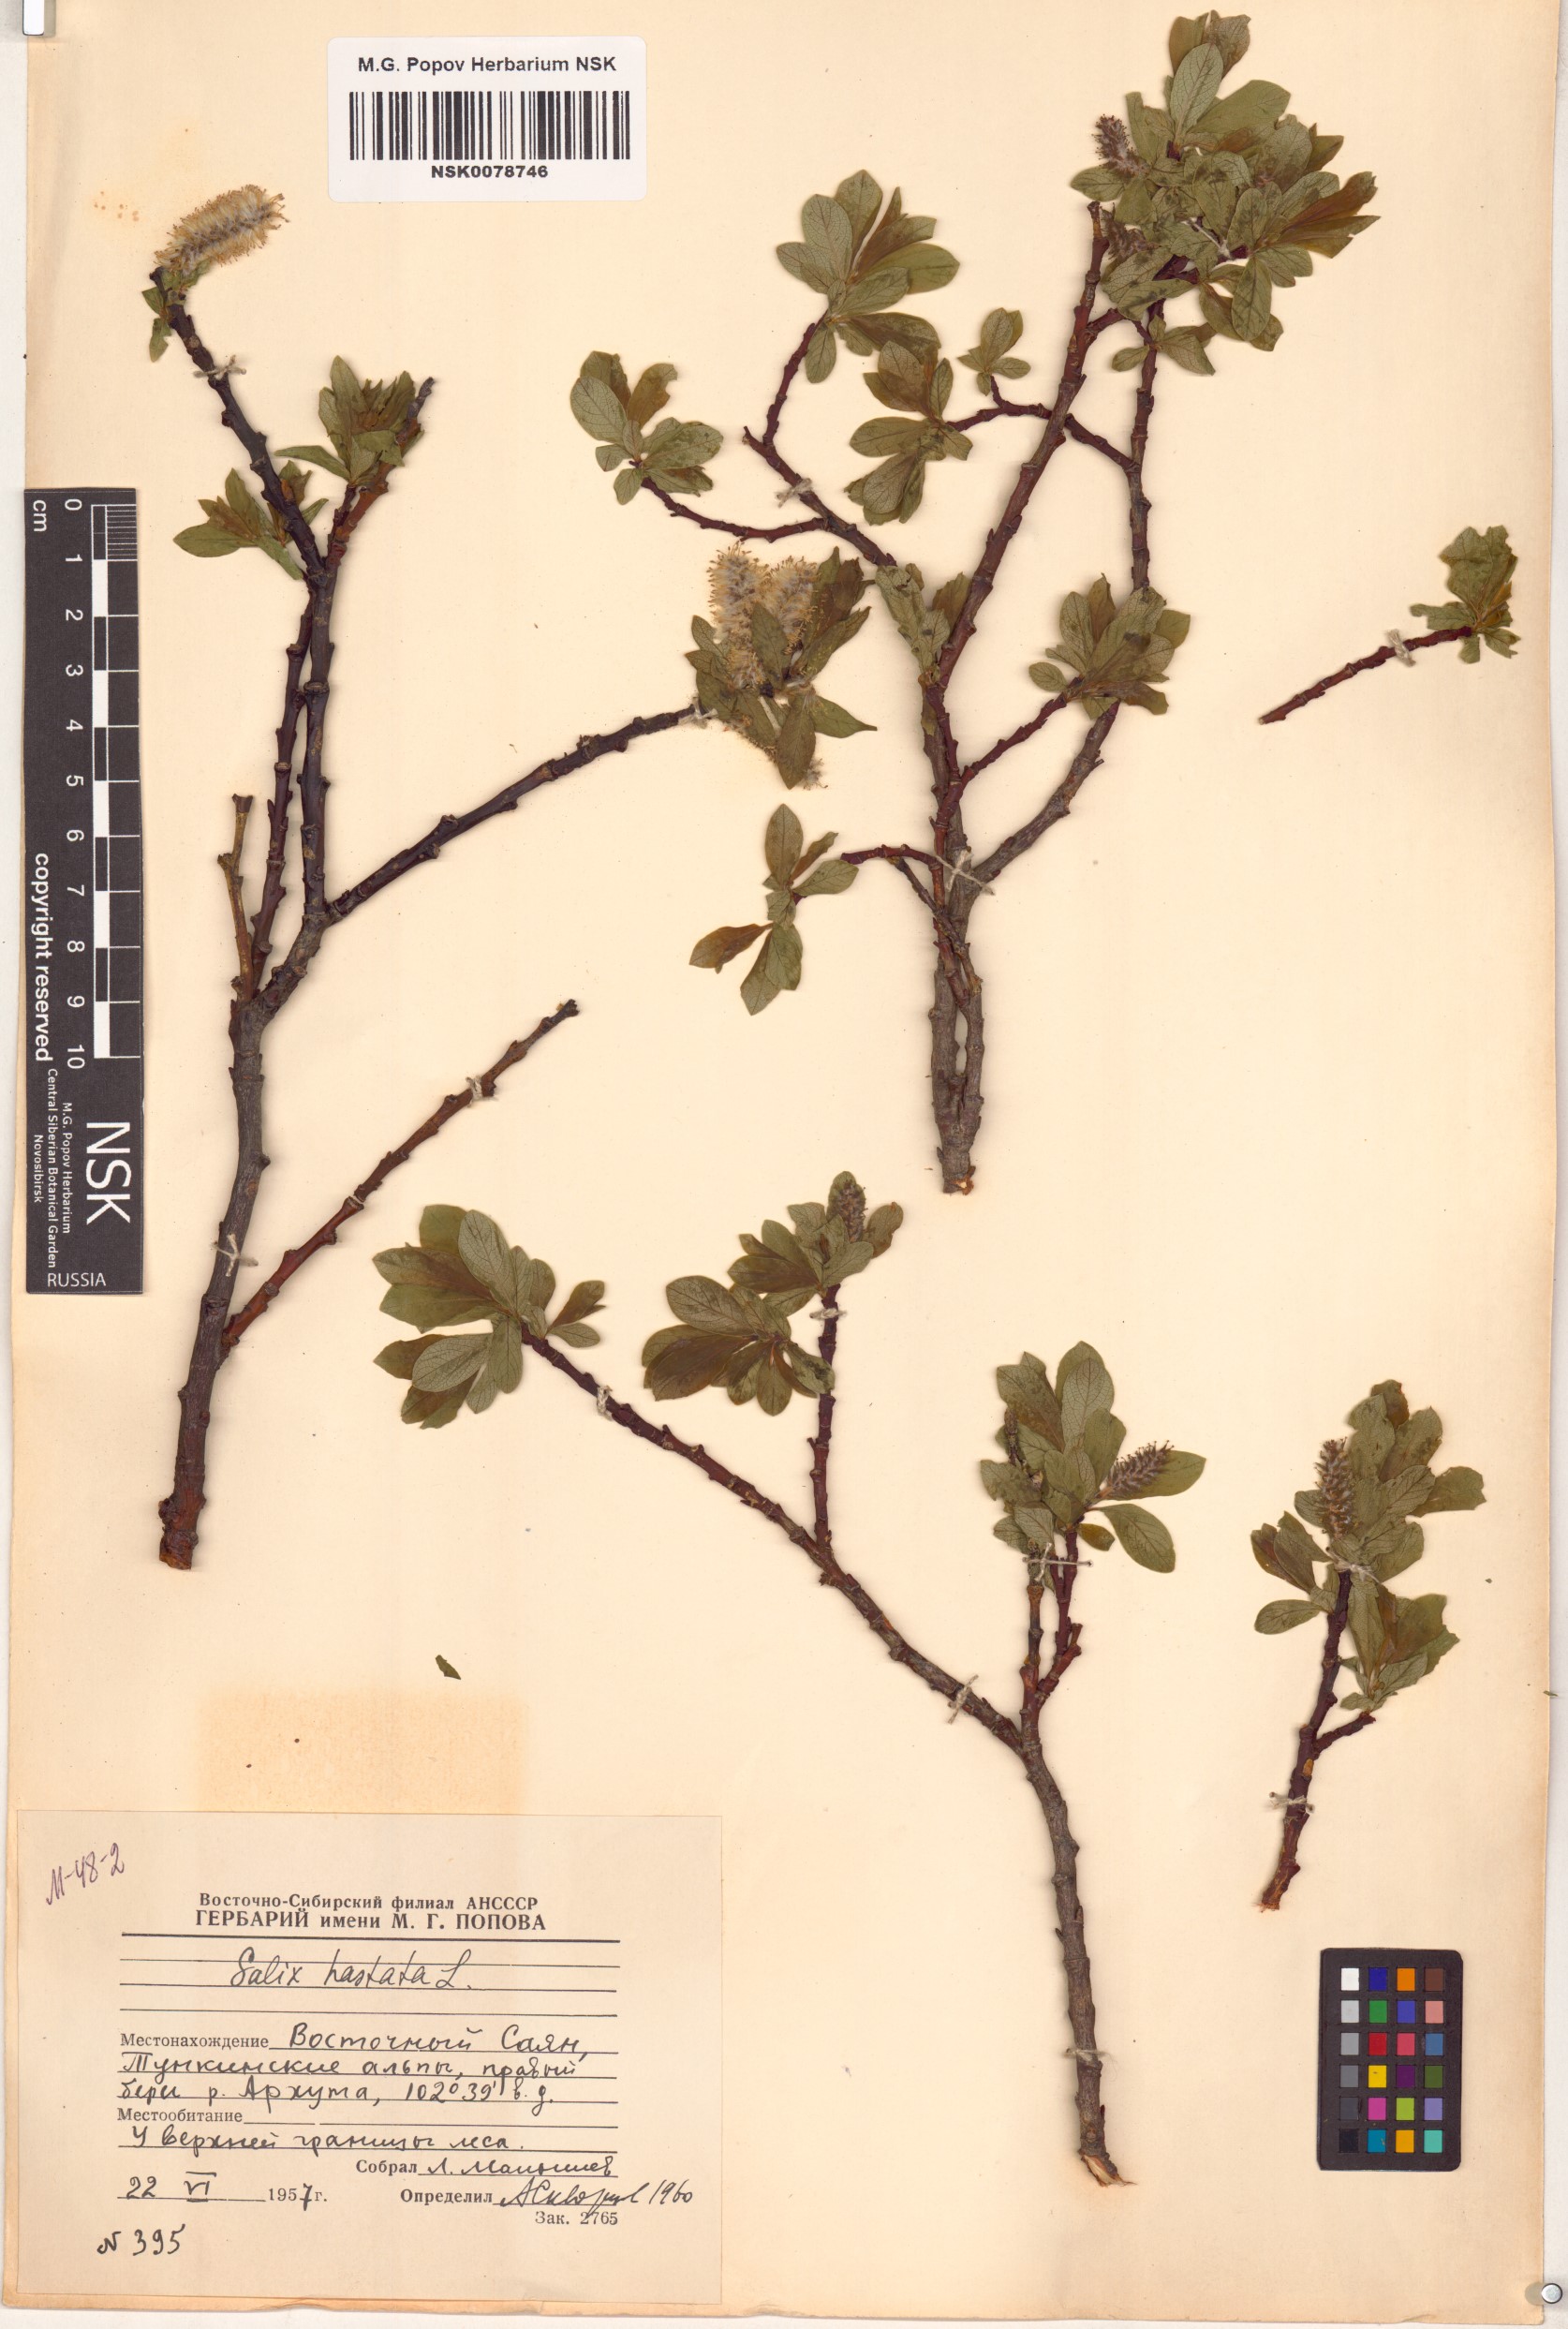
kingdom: Plantae
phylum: Tracheophyta
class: Magnoliopsida
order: Malpighiales
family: Salicaceae
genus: Salix
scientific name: Salix hastata
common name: Halberd willow
